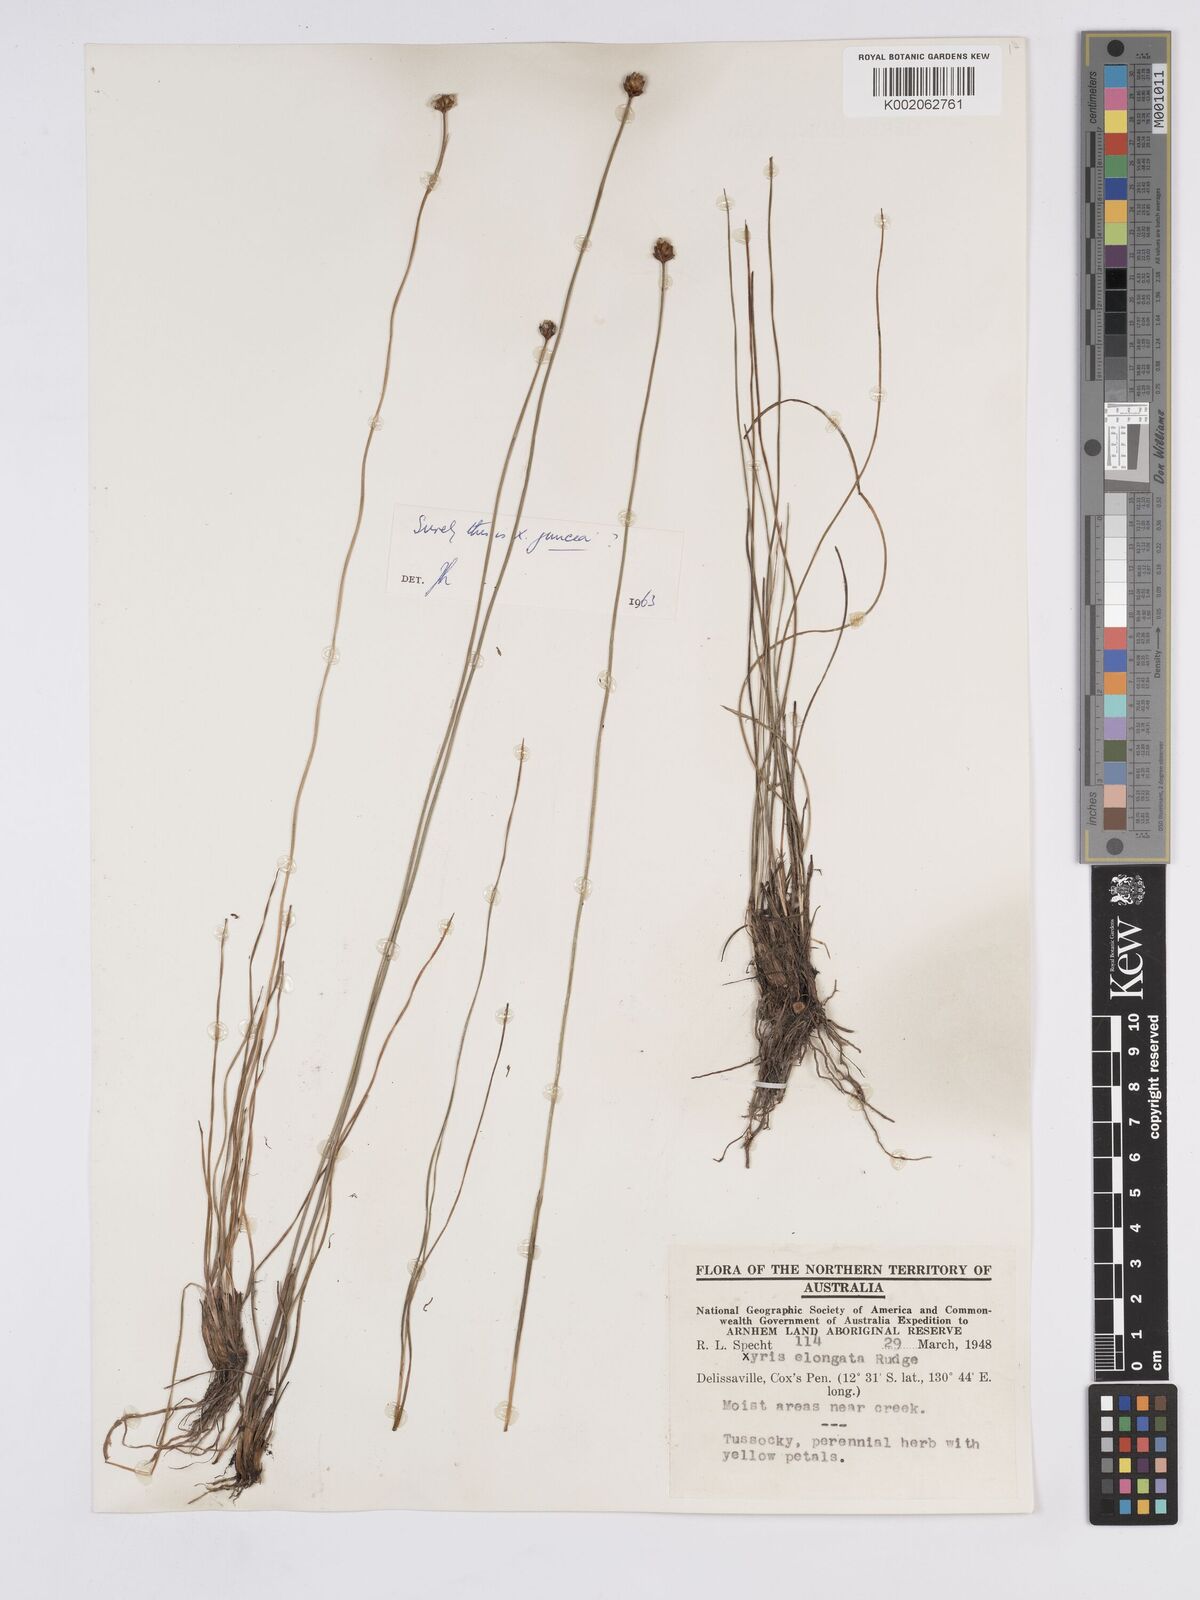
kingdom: Plantae
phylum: Tracheophyta
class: Liliopsida
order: Poales
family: Xyridaceae
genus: Xyris
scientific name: Xyris complanata
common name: Hawai'i yelloweyed grass
